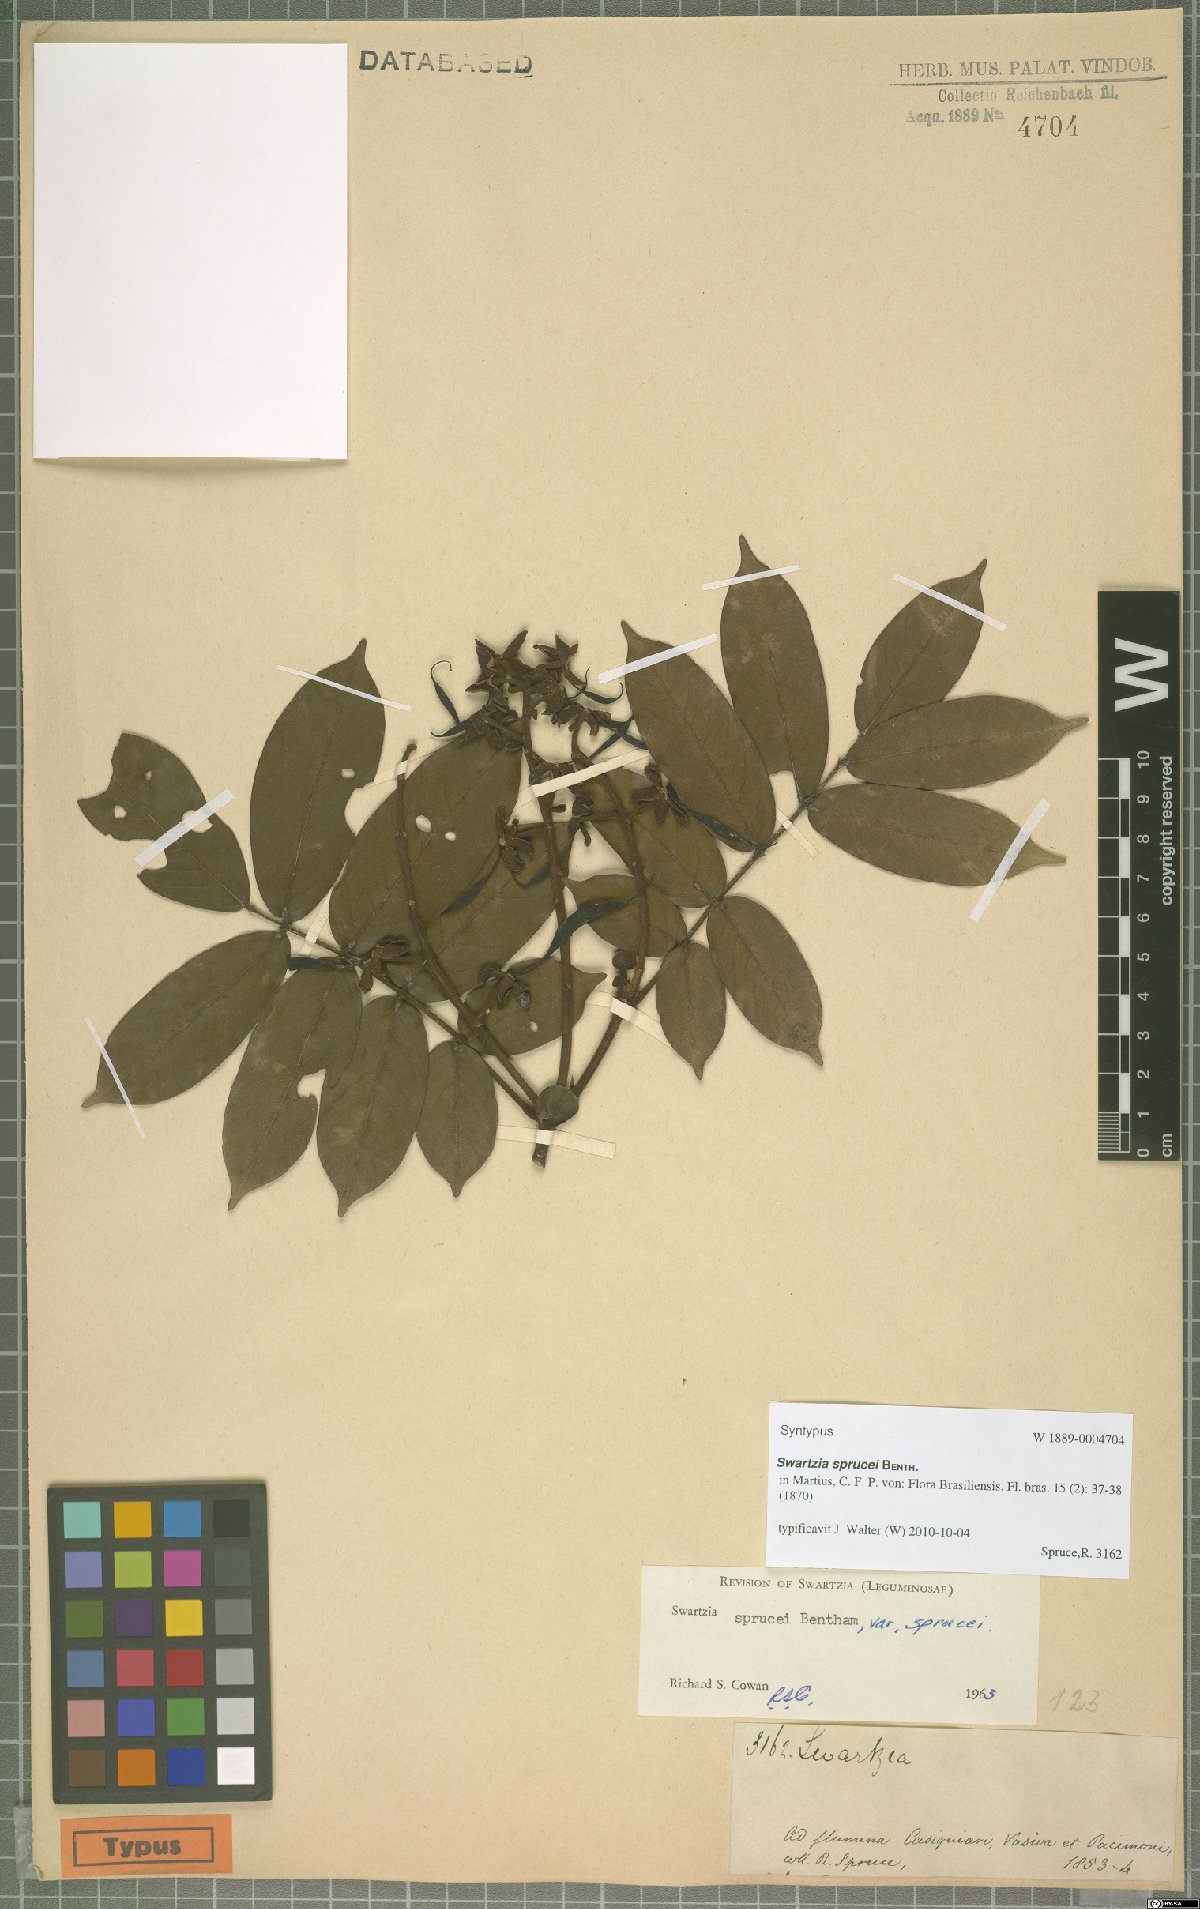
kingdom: Plantae
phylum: Tracheophyta
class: Magnoliopsida
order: Fabales
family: Fabaceae
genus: Swartzia
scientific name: Swartzia sprucei
